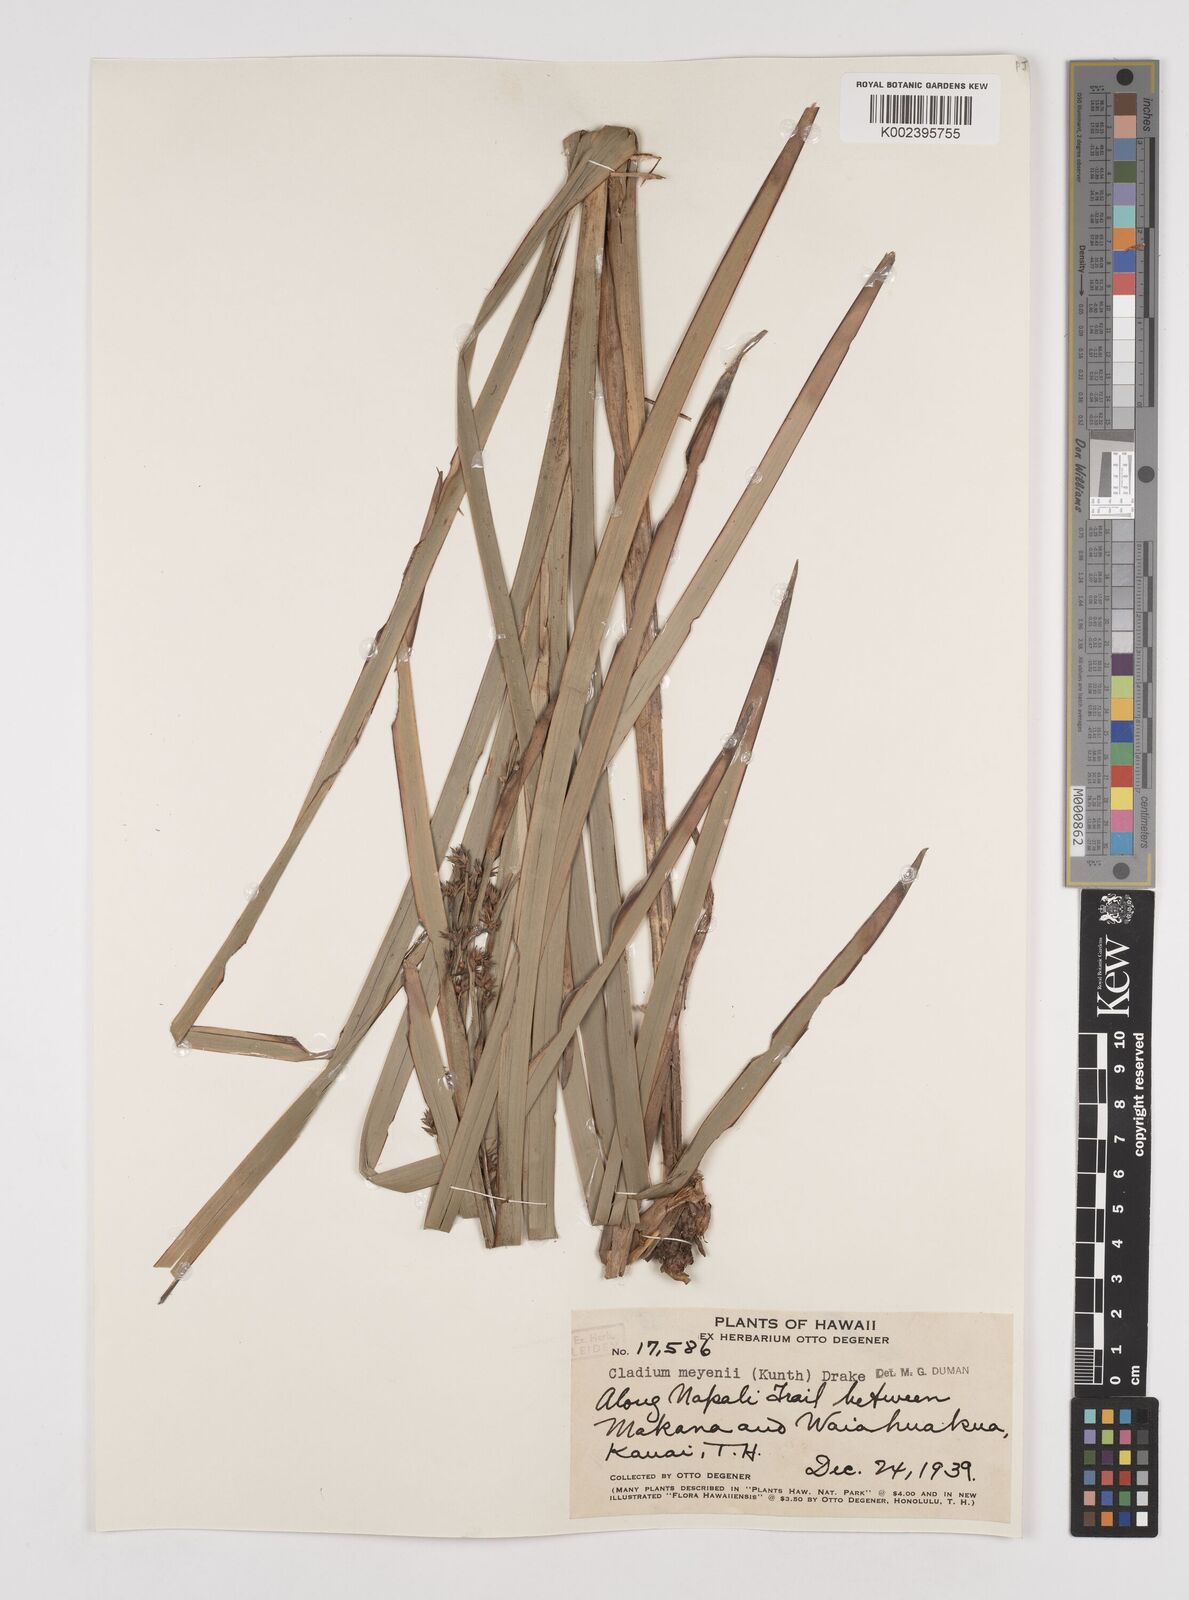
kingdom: Plantae
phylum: Tracheophyta
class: Liliopsida
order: Poales
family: Cyperaceae
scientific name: Cyperaceae
